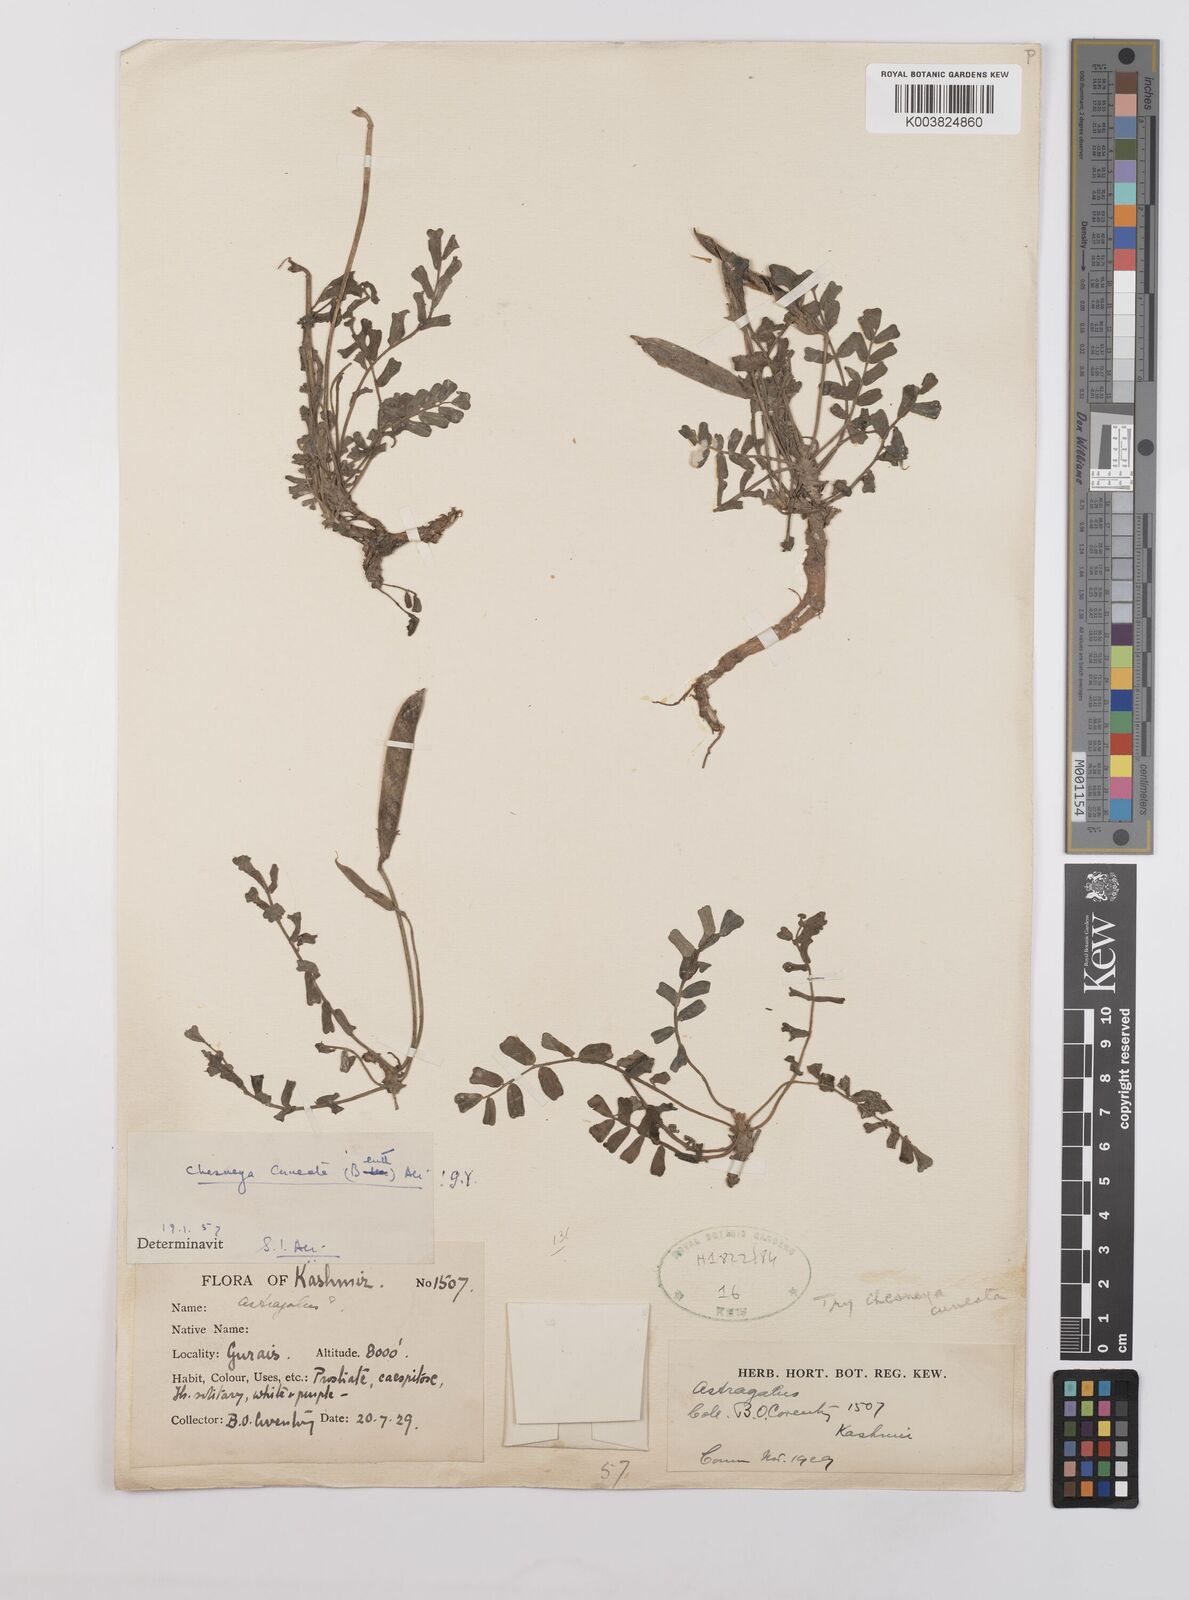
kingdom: Plantae
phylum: Tracheophyta
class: Magnoliopsida
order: Fabales
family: Fabaceae
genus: Chesneya
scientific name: Chesneya cuneata
